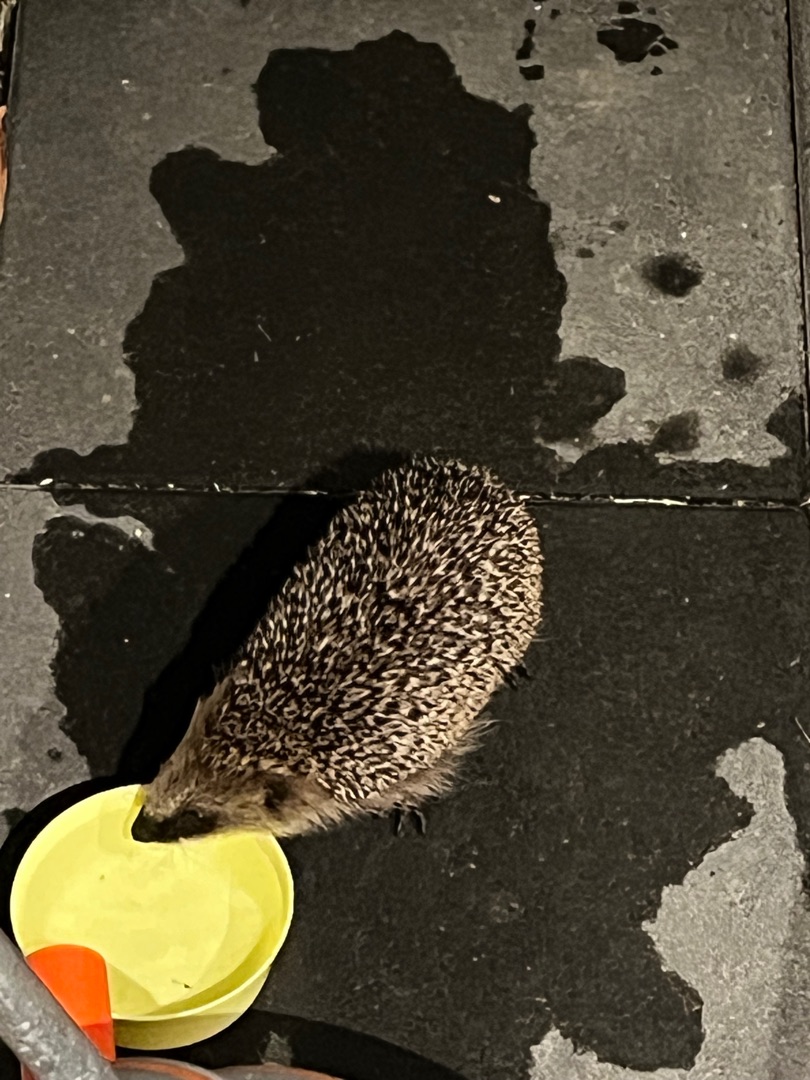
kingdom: Animalia
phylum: Chordata
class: Mammalia
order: Erinaceomorpha
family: Erinaceidae
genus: Erinaceus
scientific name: Erinaceus europaeus
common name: Pindsvin
